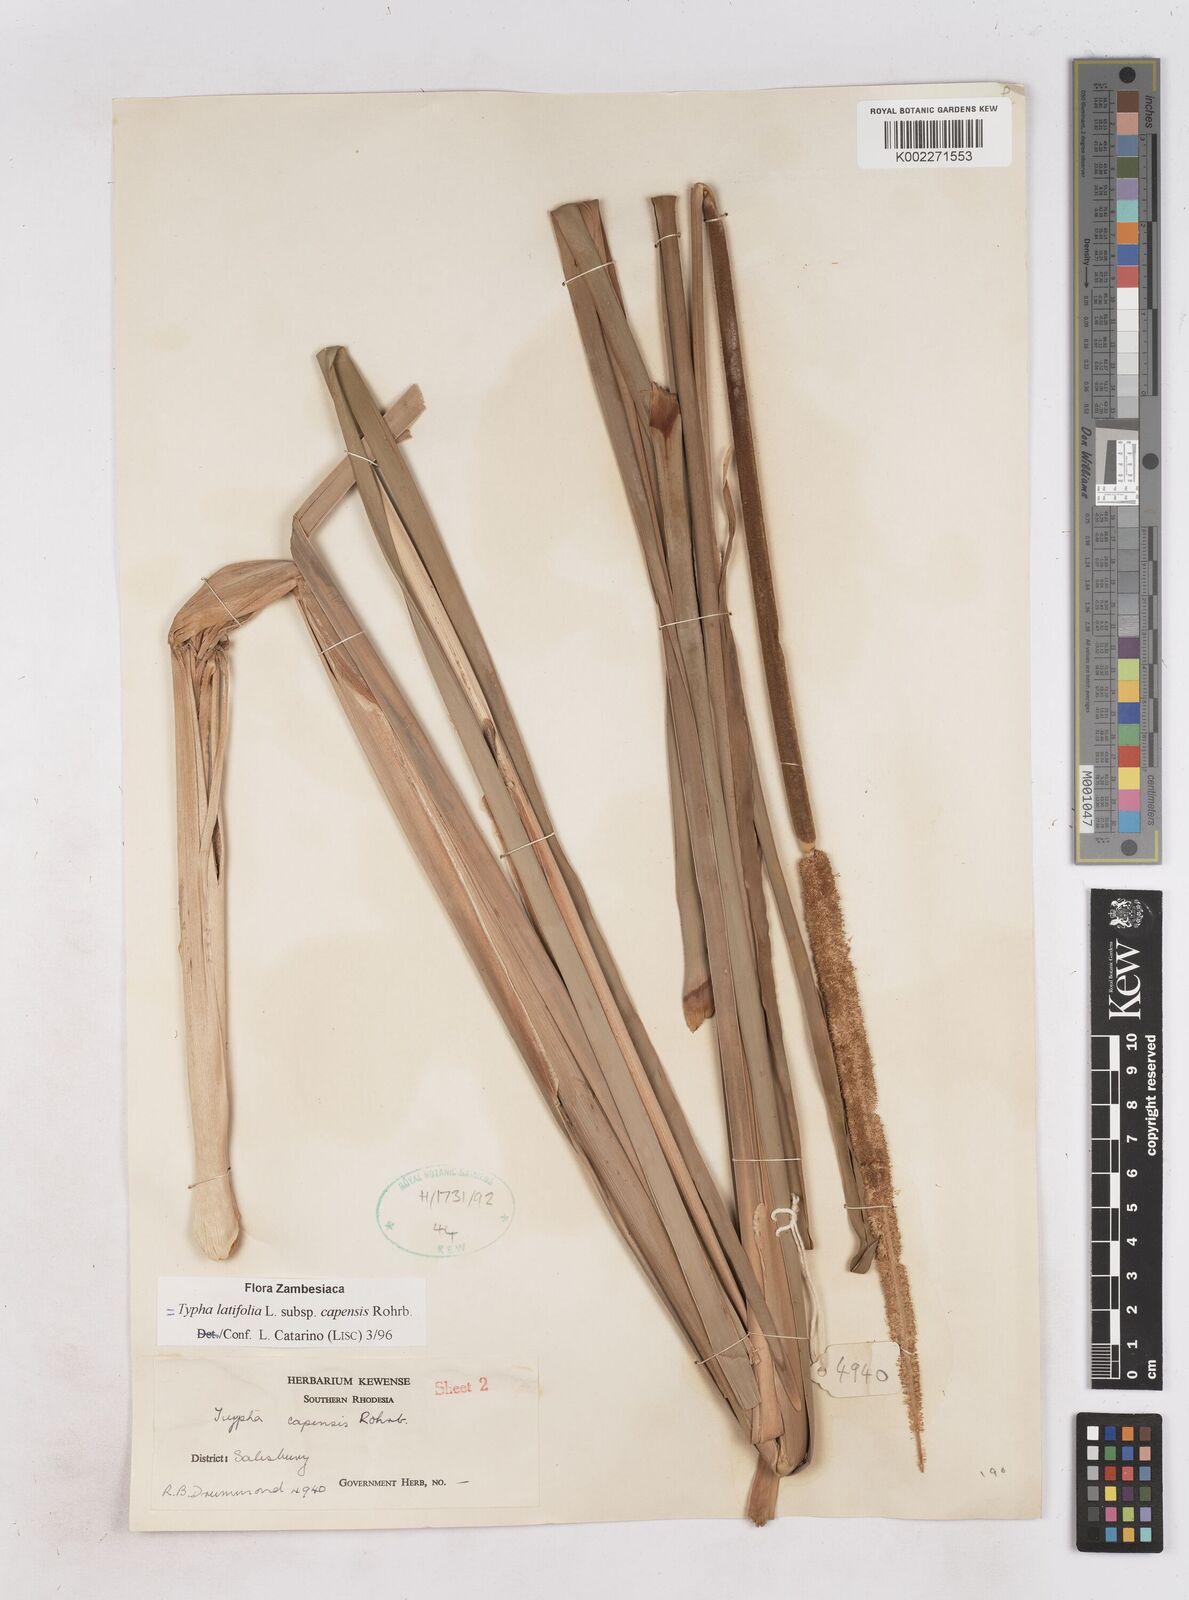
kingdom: Plantae
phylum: Tracheophyta
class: Liliopsida
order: Poales
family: Typhaceae
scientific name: Typhaceae
